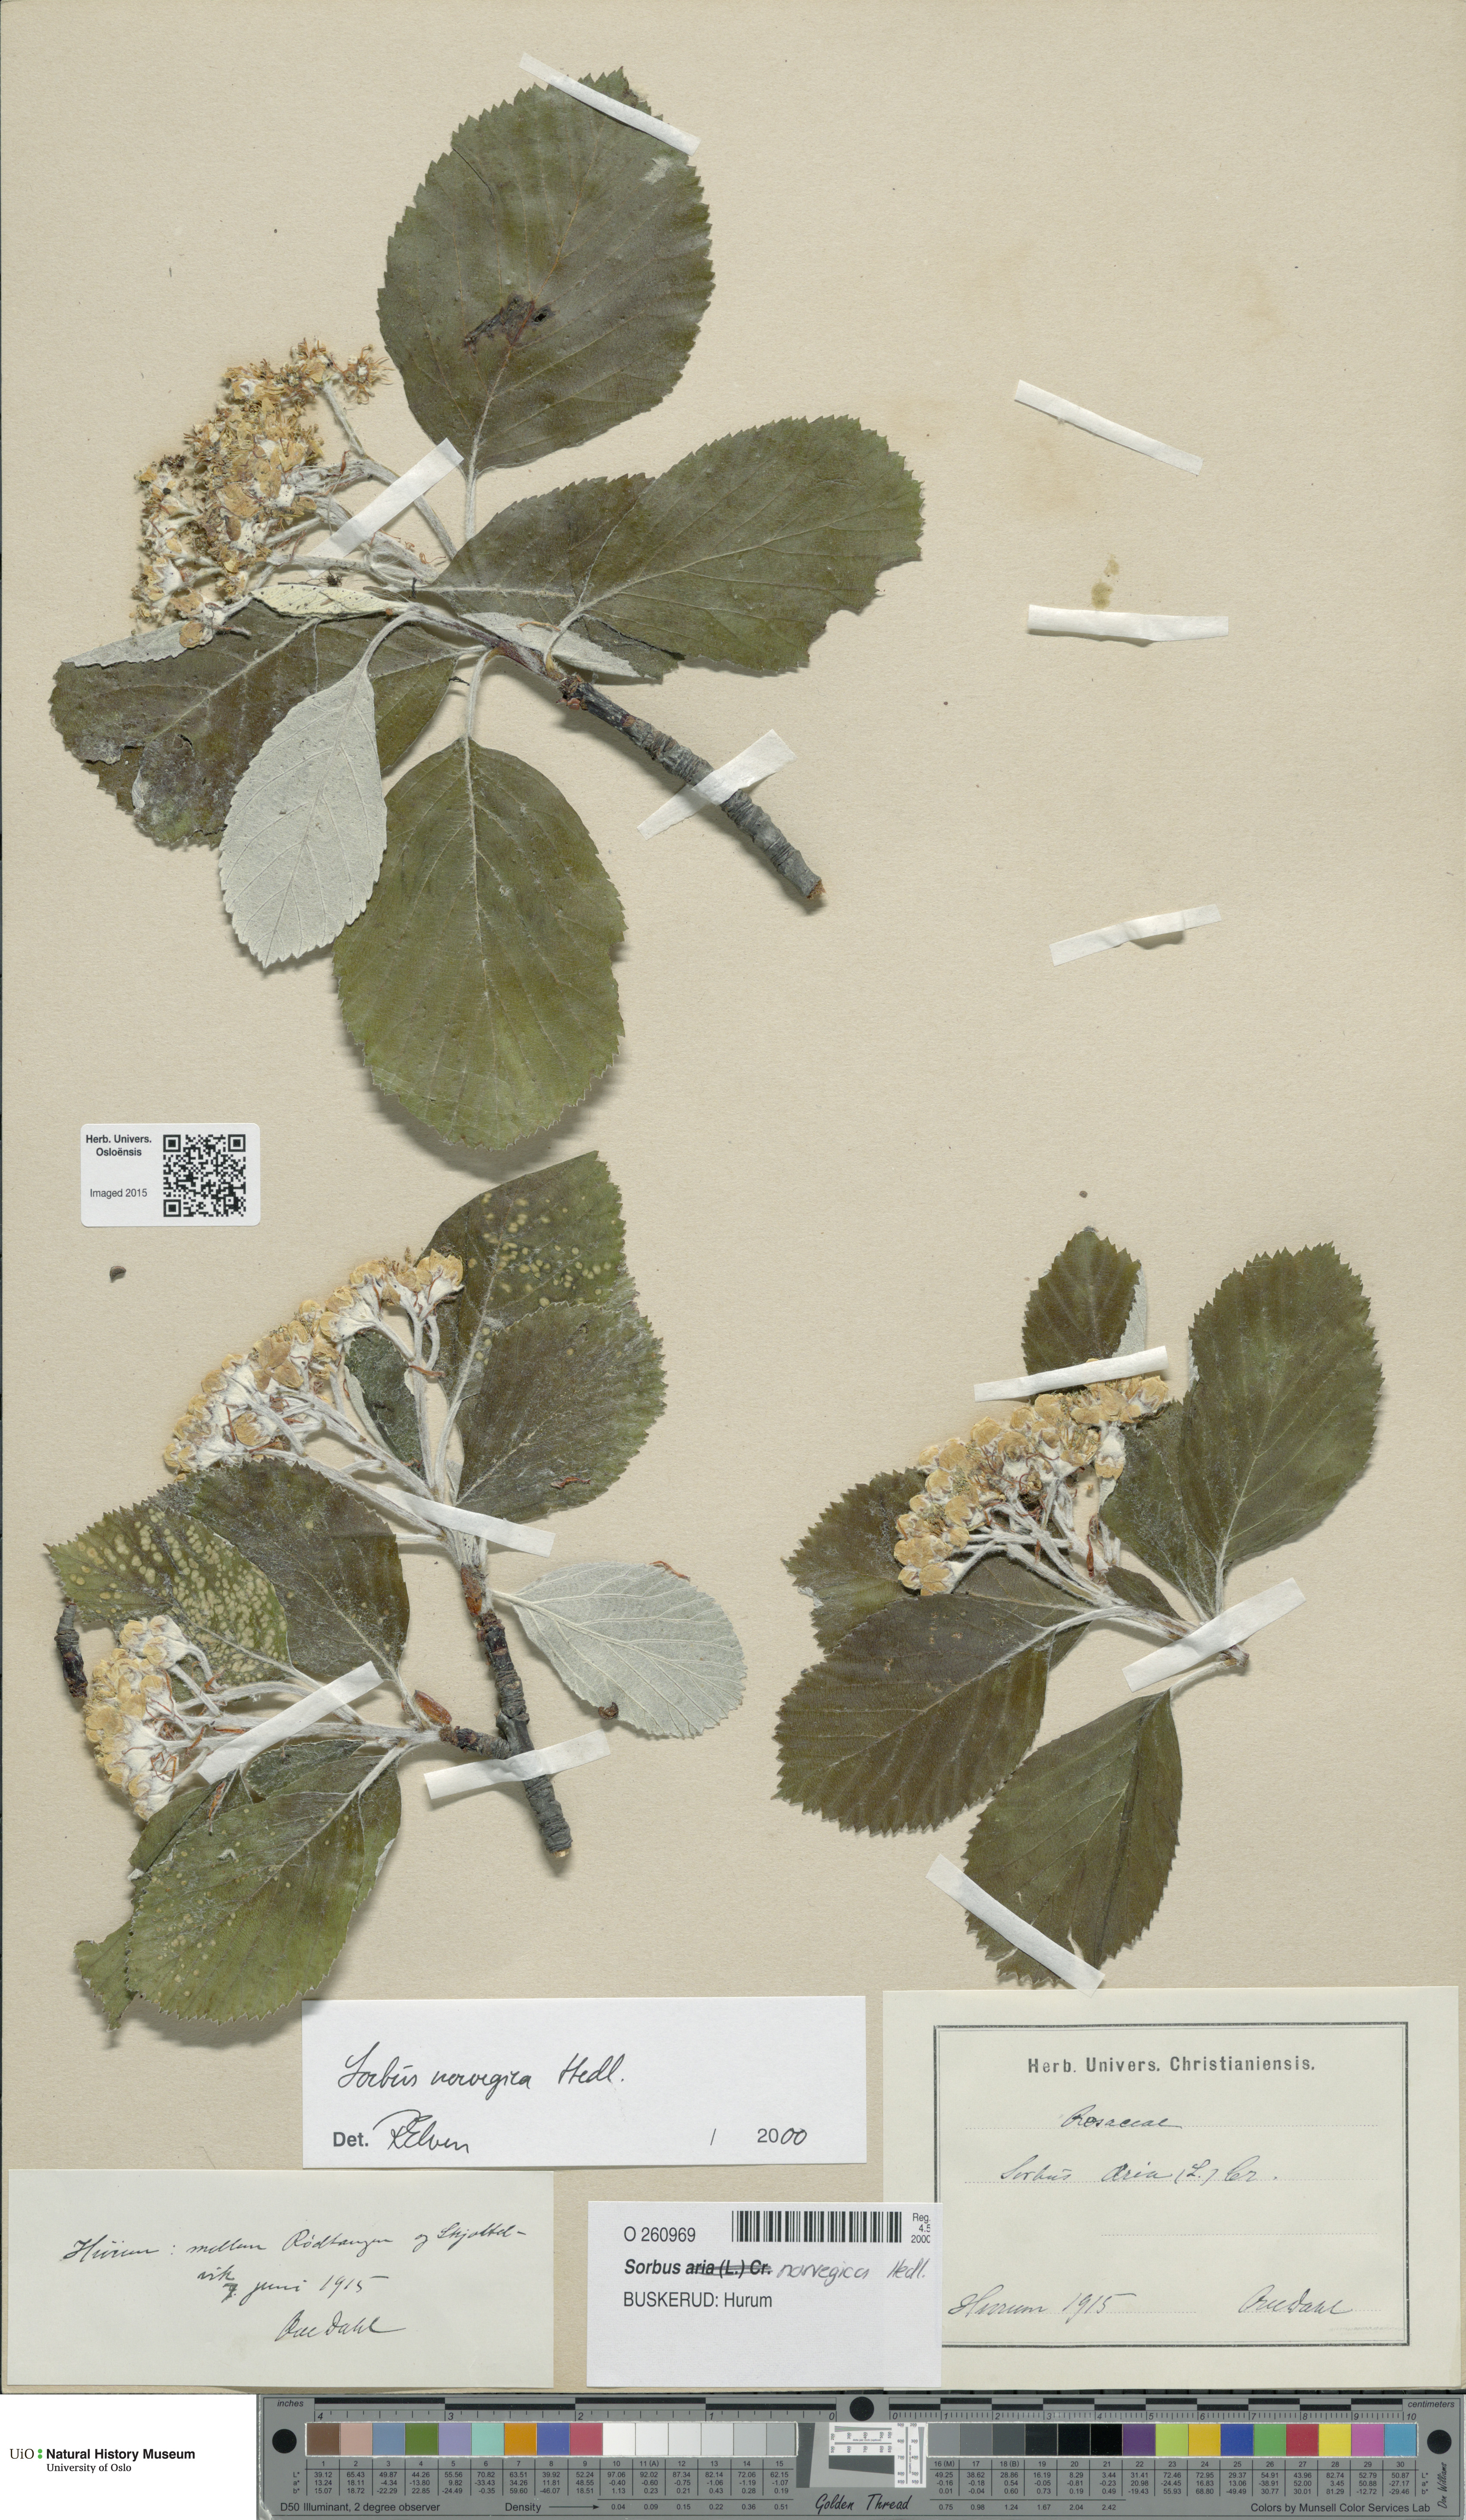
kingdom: Plantae
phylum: Tracheophyta
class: Magnoliopsida
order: Rosales
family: Rosaceae
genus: Aria
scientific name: Aria obtusifolia
